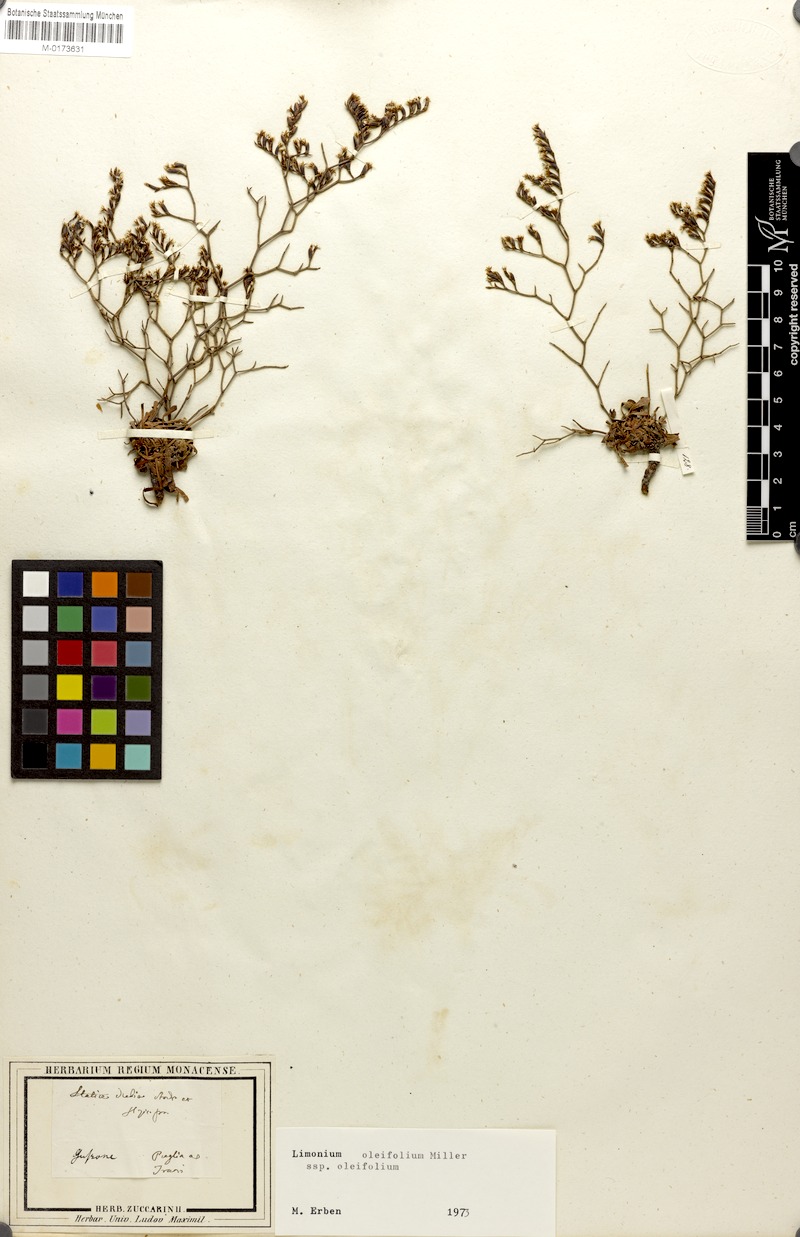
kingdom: Plantae
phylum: Tracheophyta
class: Magnoliopsida
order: Caryophyllales
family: Plumbaginaceae
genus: Limonium
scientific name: Limonium virgatum
